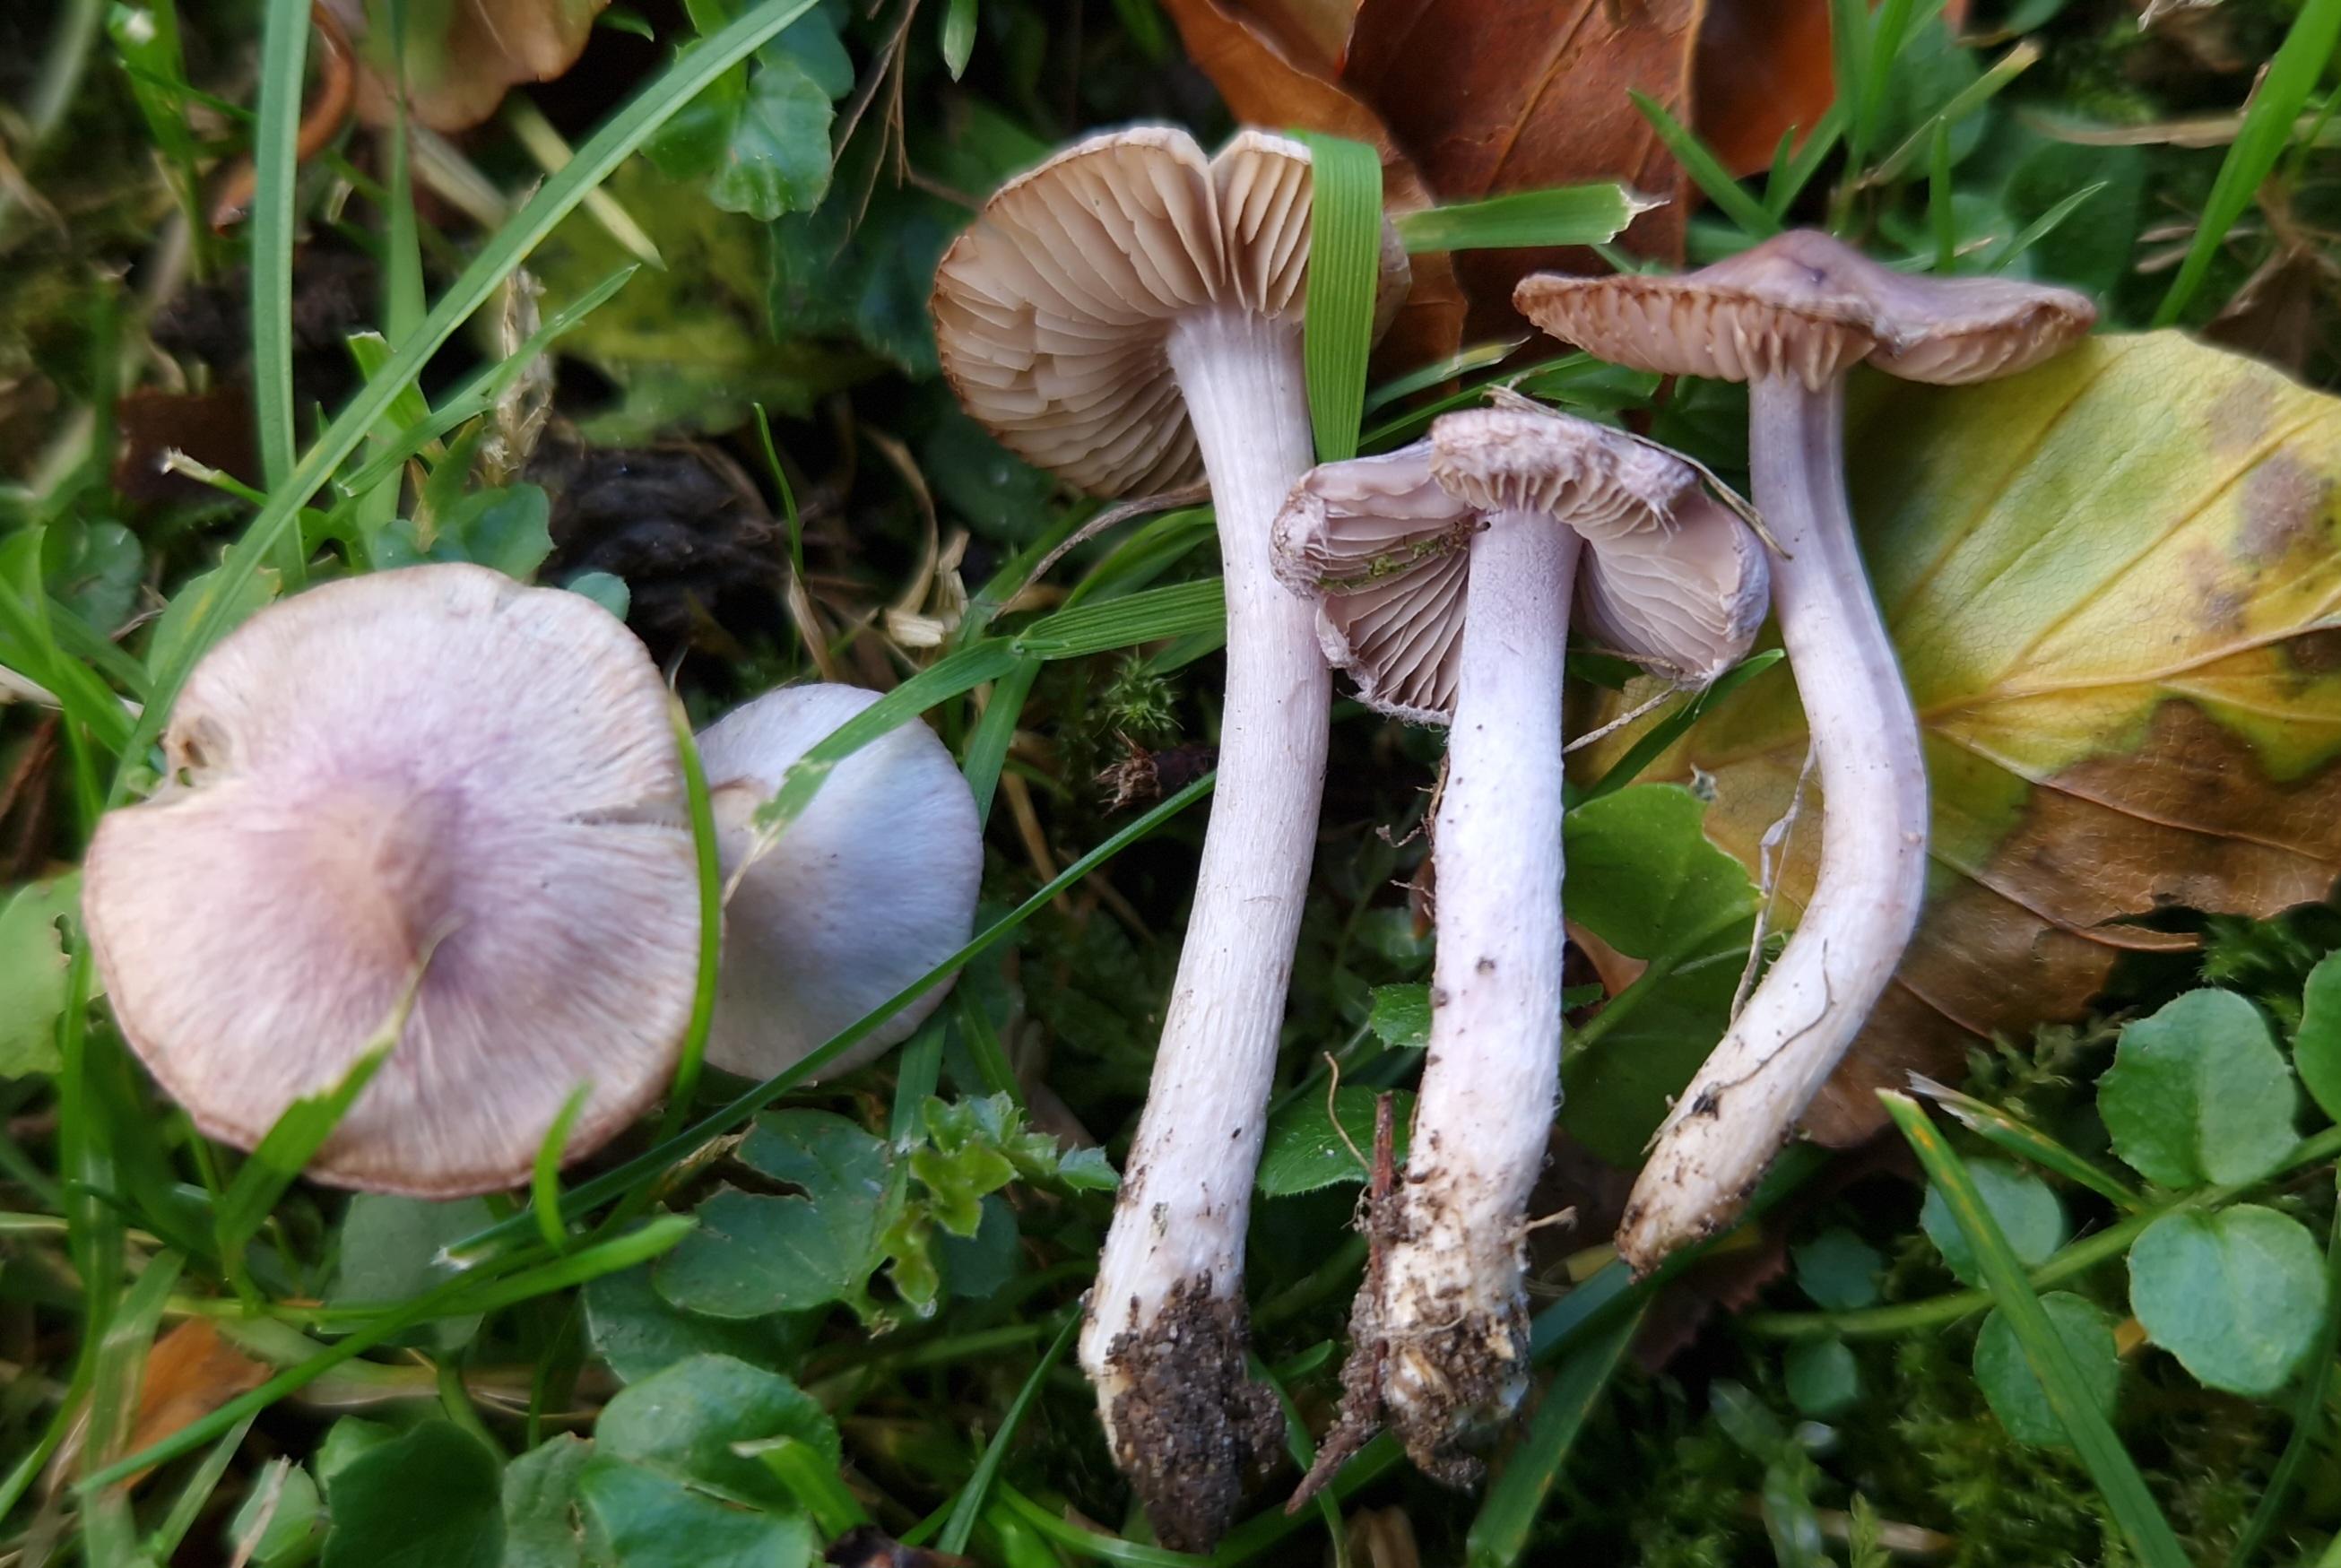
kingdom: Fungi
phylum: Basidiomycota
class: Agaricomycetes
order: Agaricales
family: Inocybaceae
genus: Inocybe
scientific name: Inocybe tyrii
